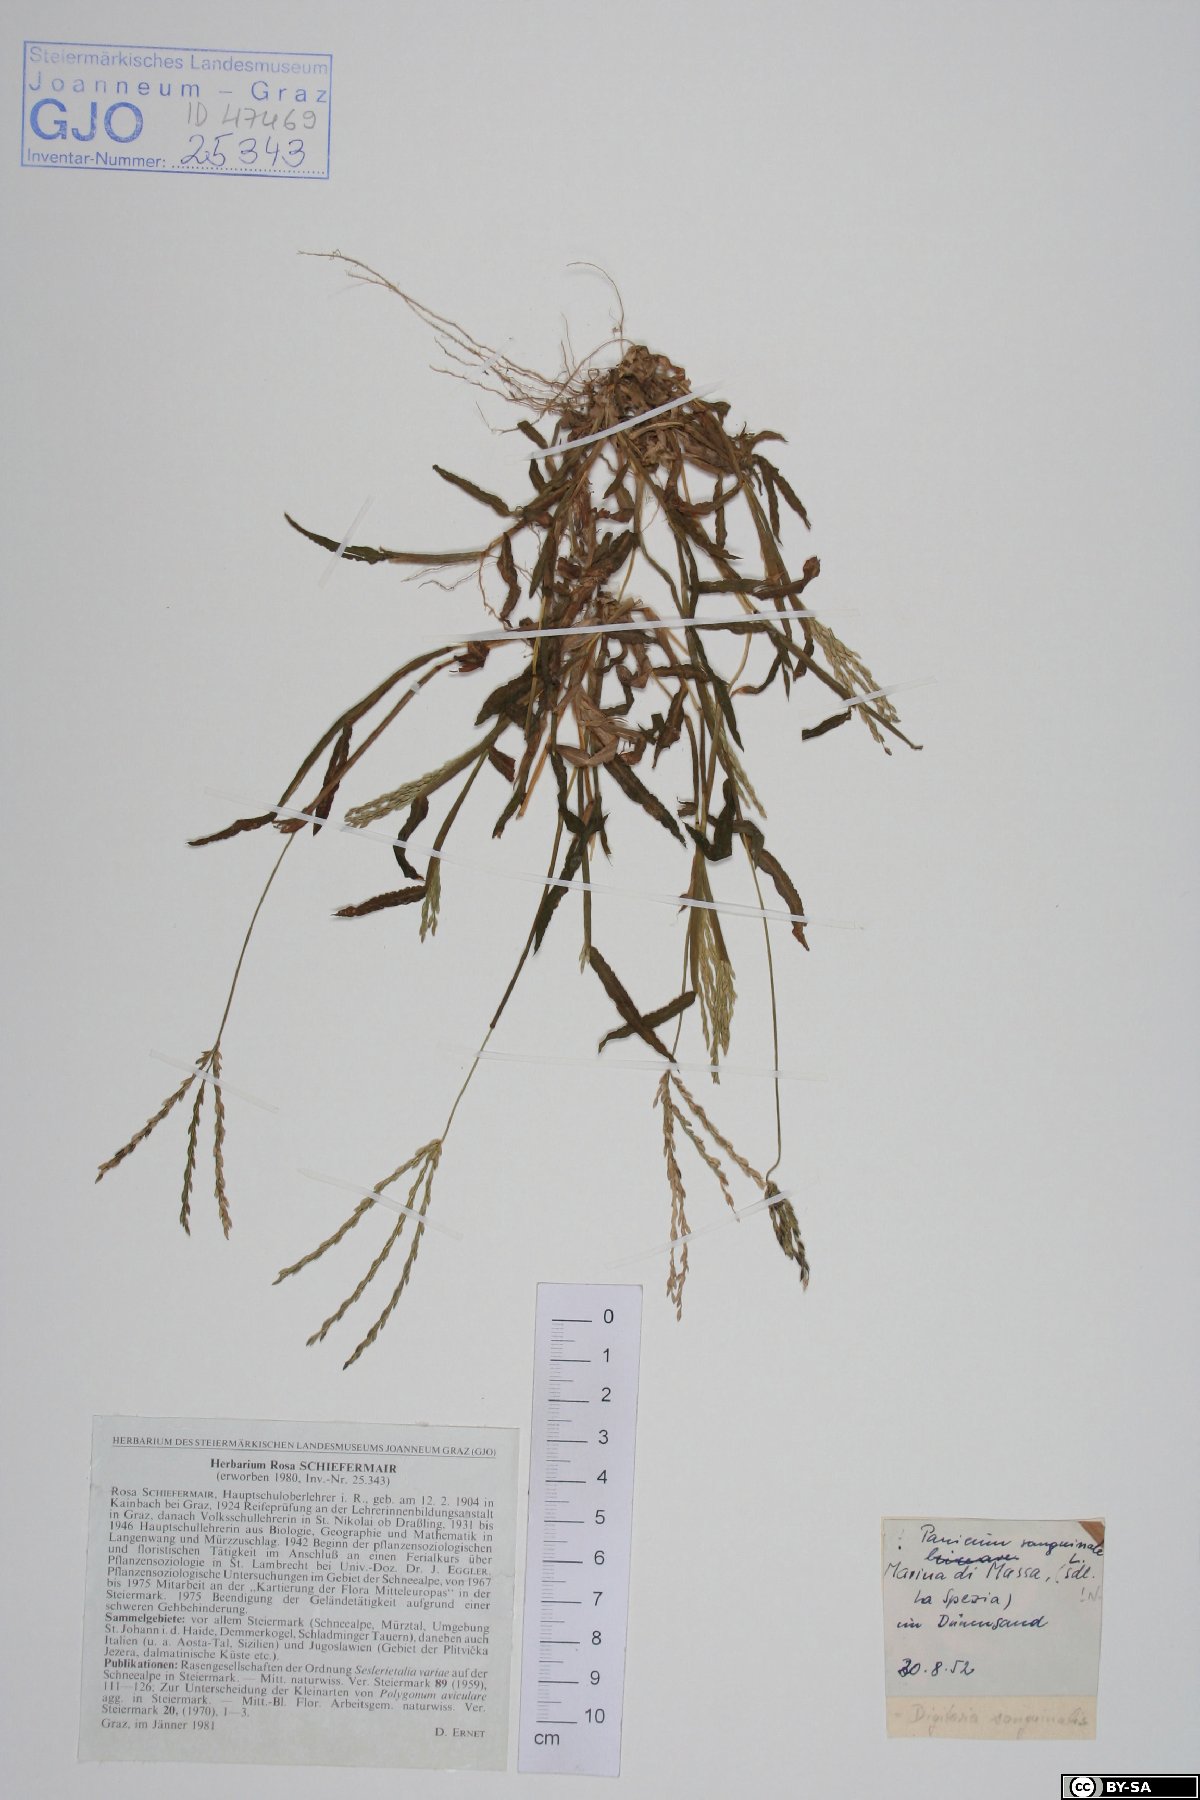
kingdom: Plantae
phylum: Tracheophyta
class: Liliopsida
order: Poales
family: Poaceae
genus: Digitaria
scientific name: Digitaria sanguinalis
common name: Hairy crabgrass
